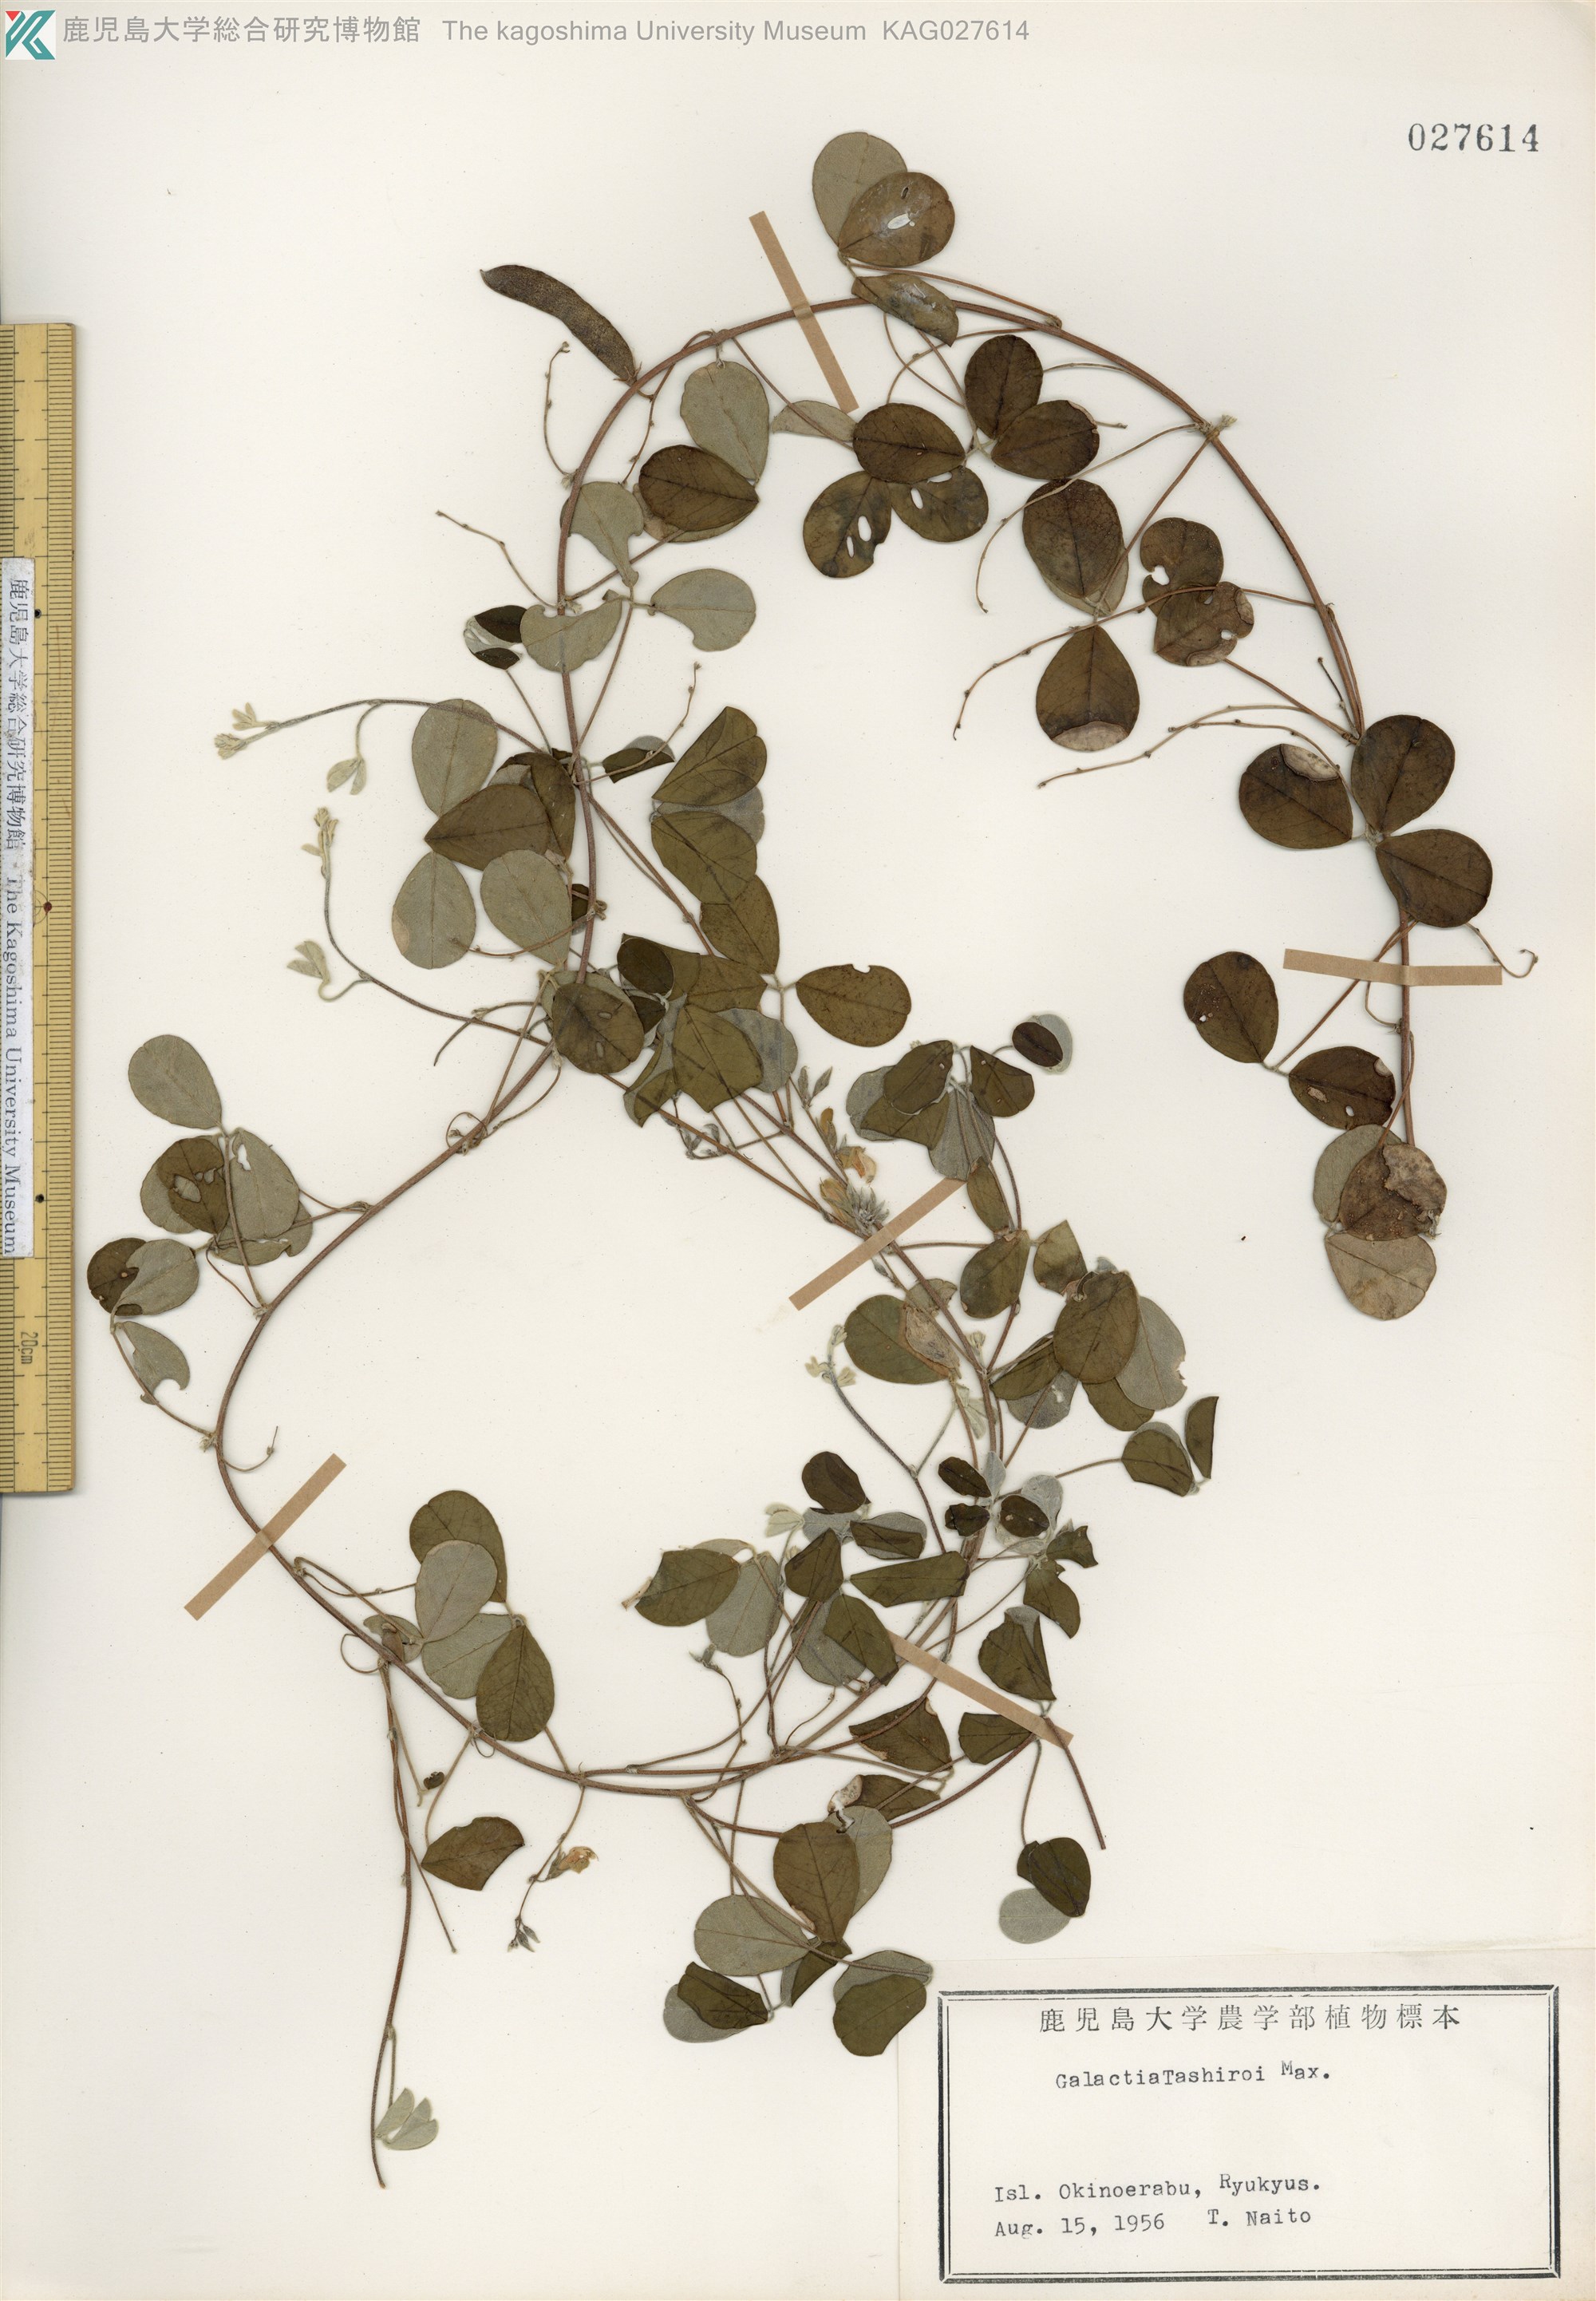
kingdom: Plantae
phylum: Tracheophyta
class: Magnoliopsida
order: Fabales
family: Fabaceae
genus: Galactia
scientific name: Galactia tashiroi
